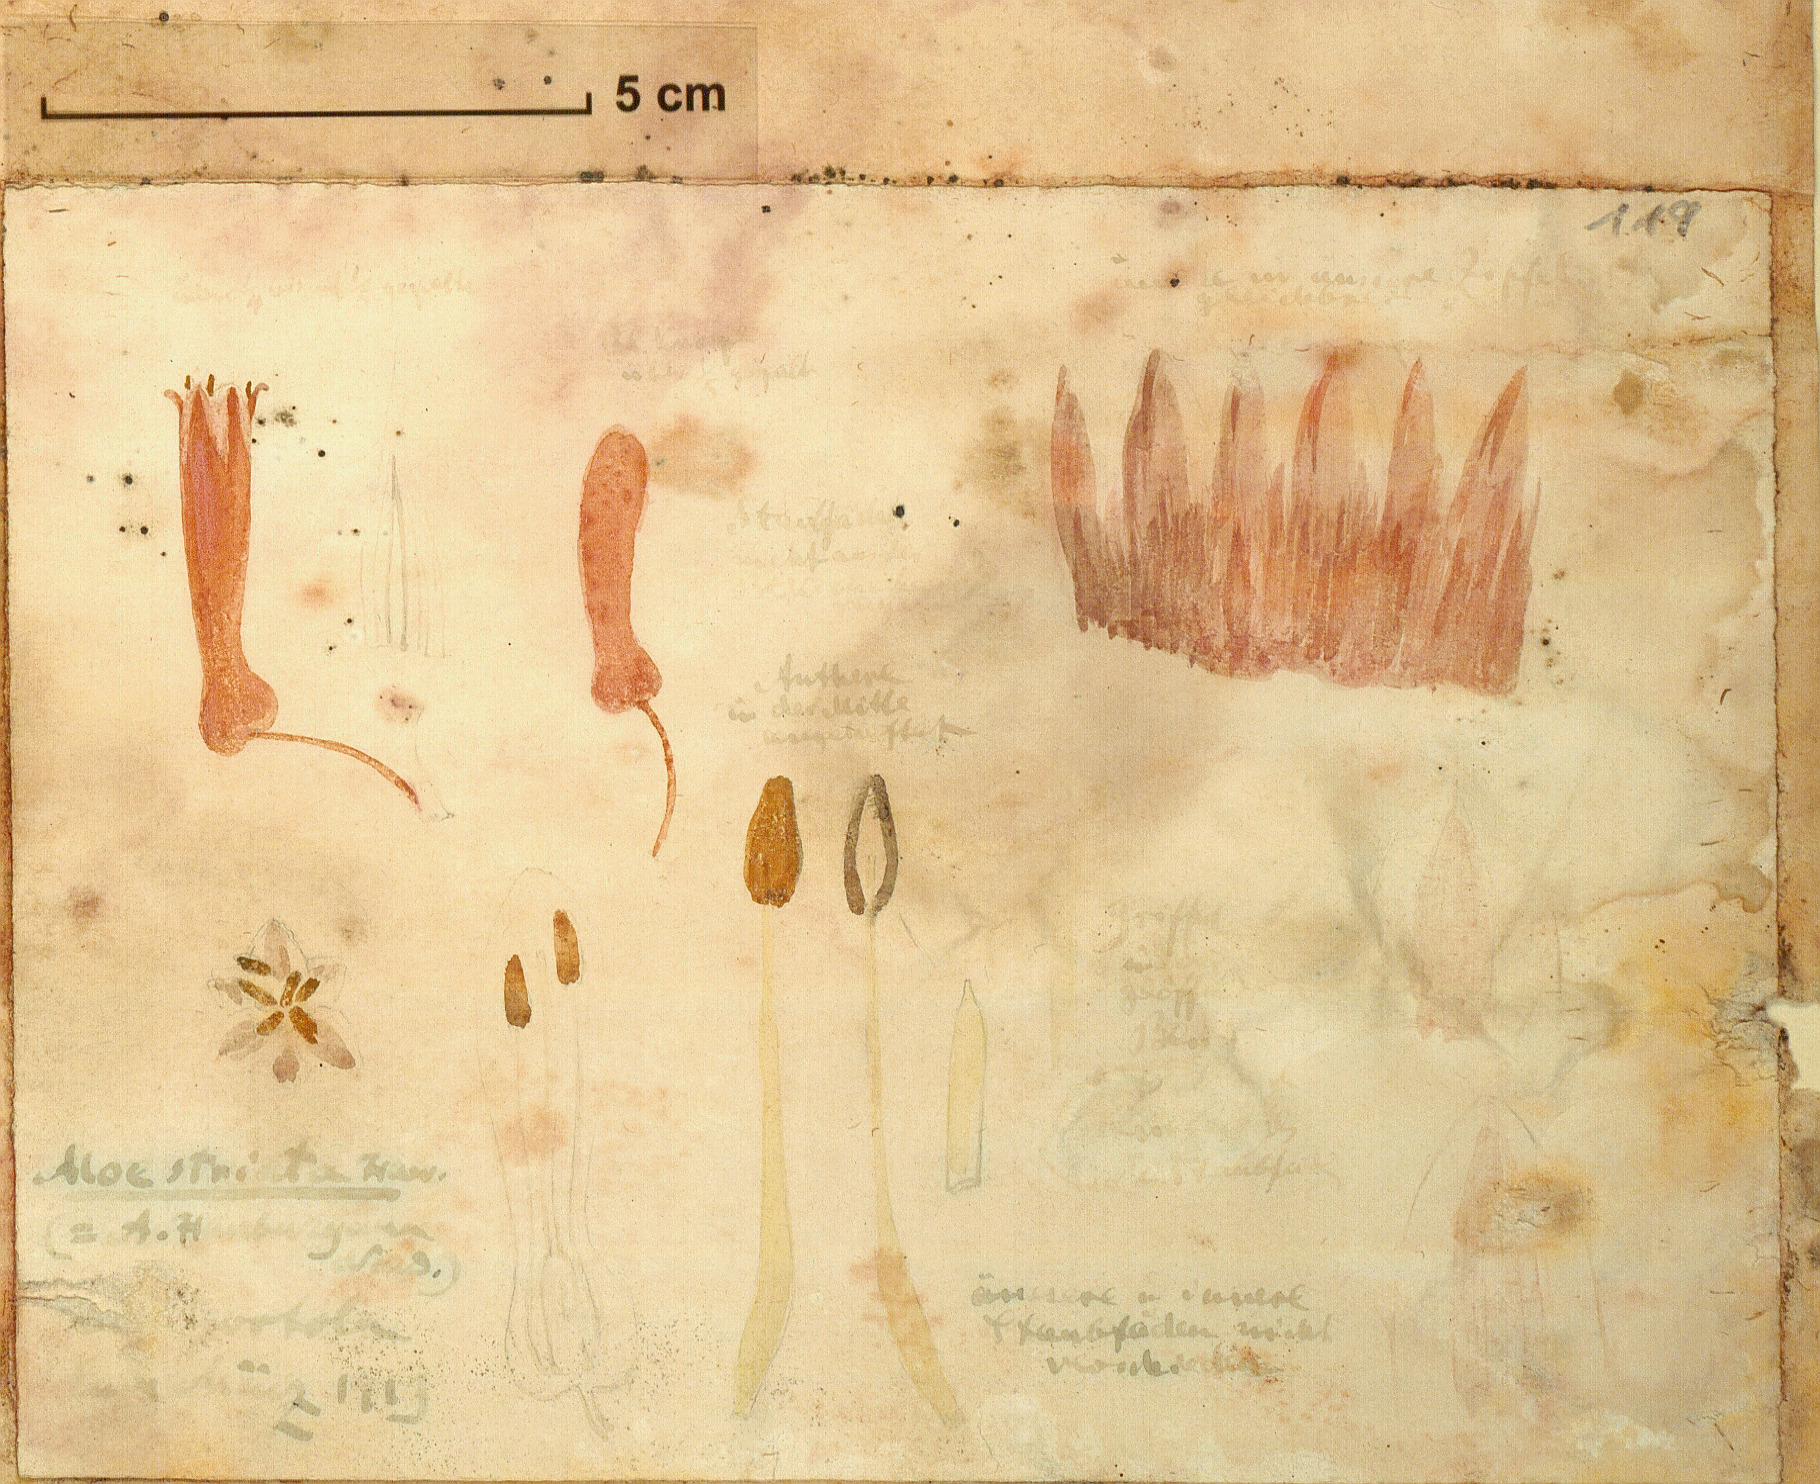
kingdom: Plantae
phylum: Tracheophyta
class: Liliopsida
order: Asparagales
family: Asphodelaceae
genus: Aloe
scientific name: Aloe striata
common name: Coral aloe
